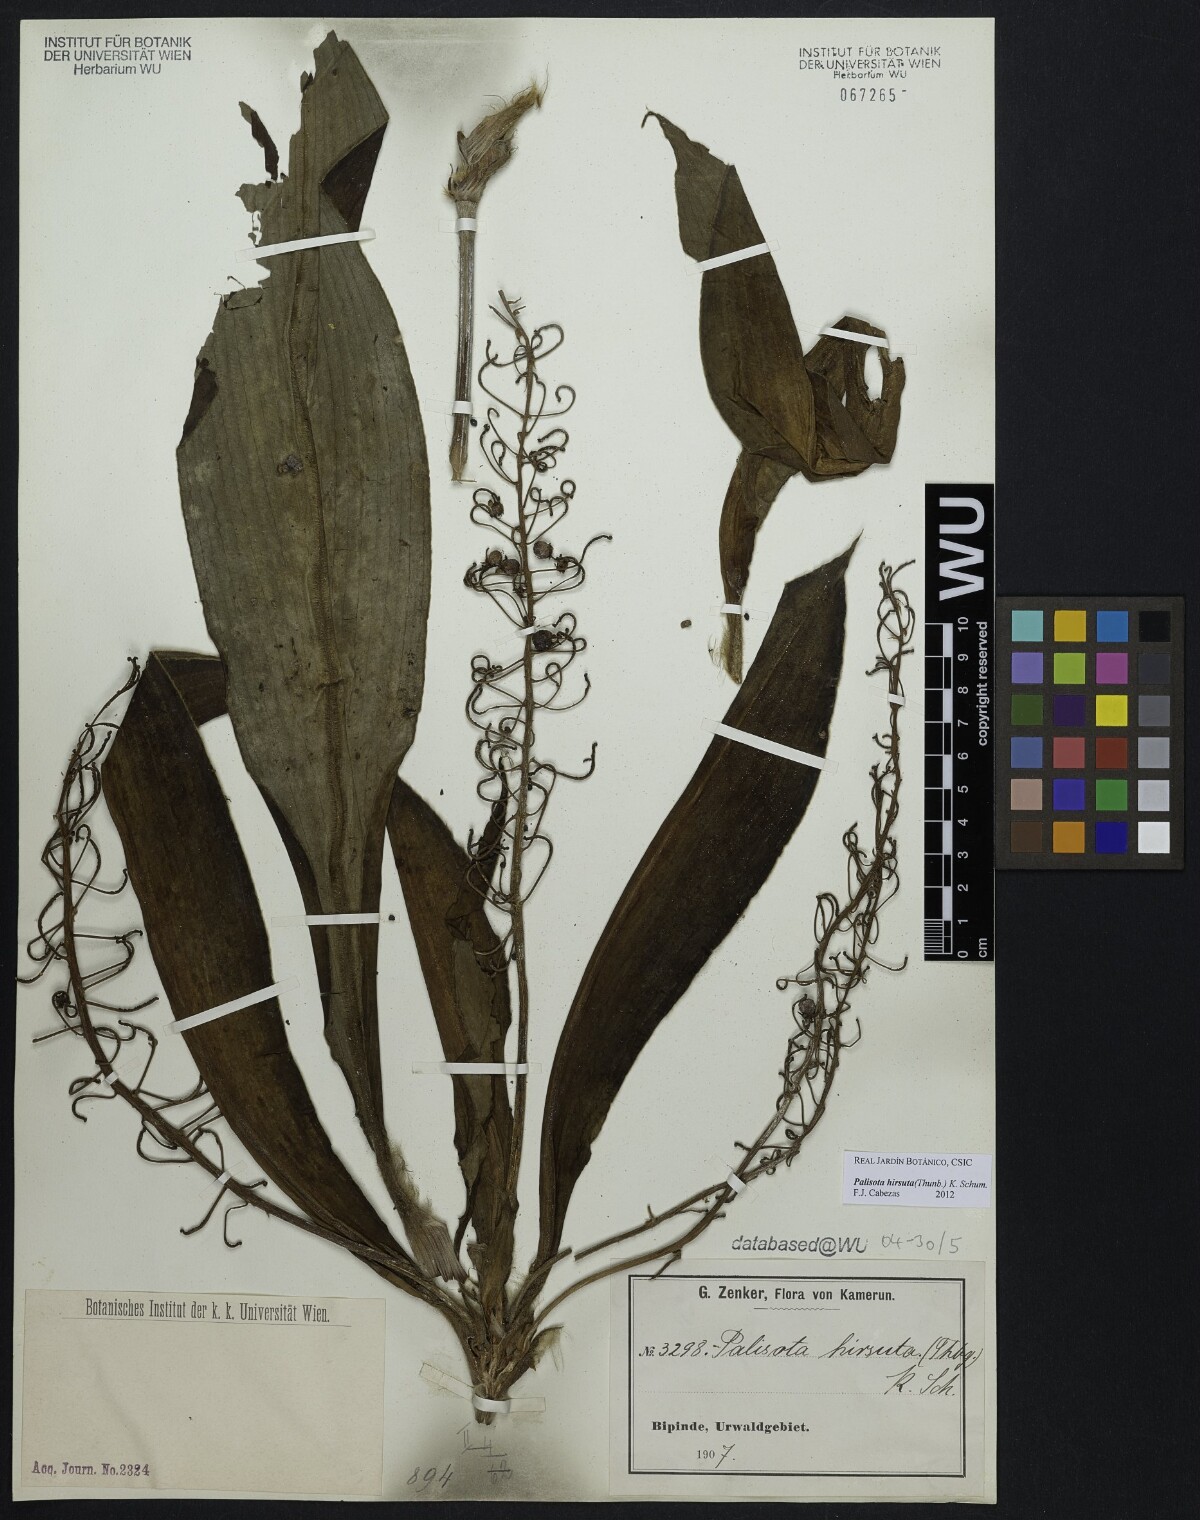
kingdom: Plantae
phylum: Tracheophyta
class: Liliopsida
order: Commelinales
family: Commelinaceae
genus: Palisota
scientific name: Palisota hirsuta
